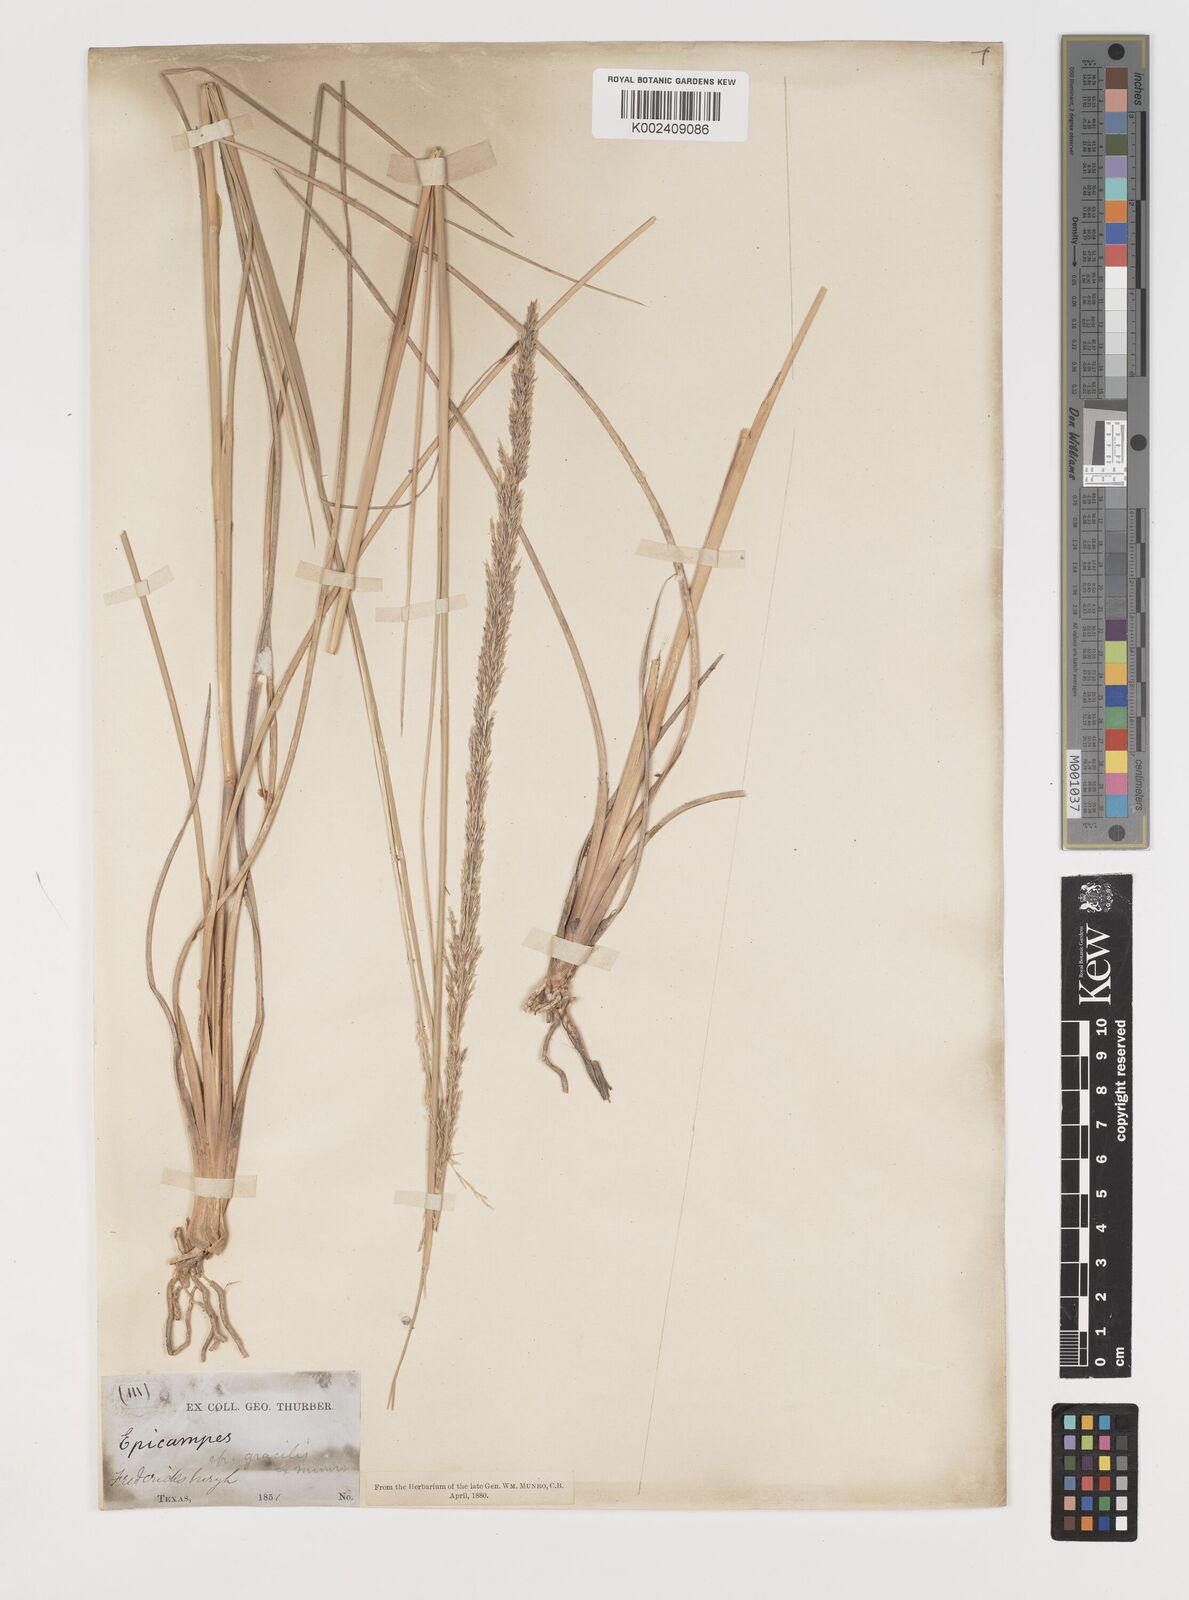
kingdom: Plantae
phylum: Tracheophyta
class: Liliopsida
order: Poales
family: Poaceae
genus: Muhlenbergia
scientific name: Muhlenbergia lindheimeri
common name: Lindheimer's muhly
